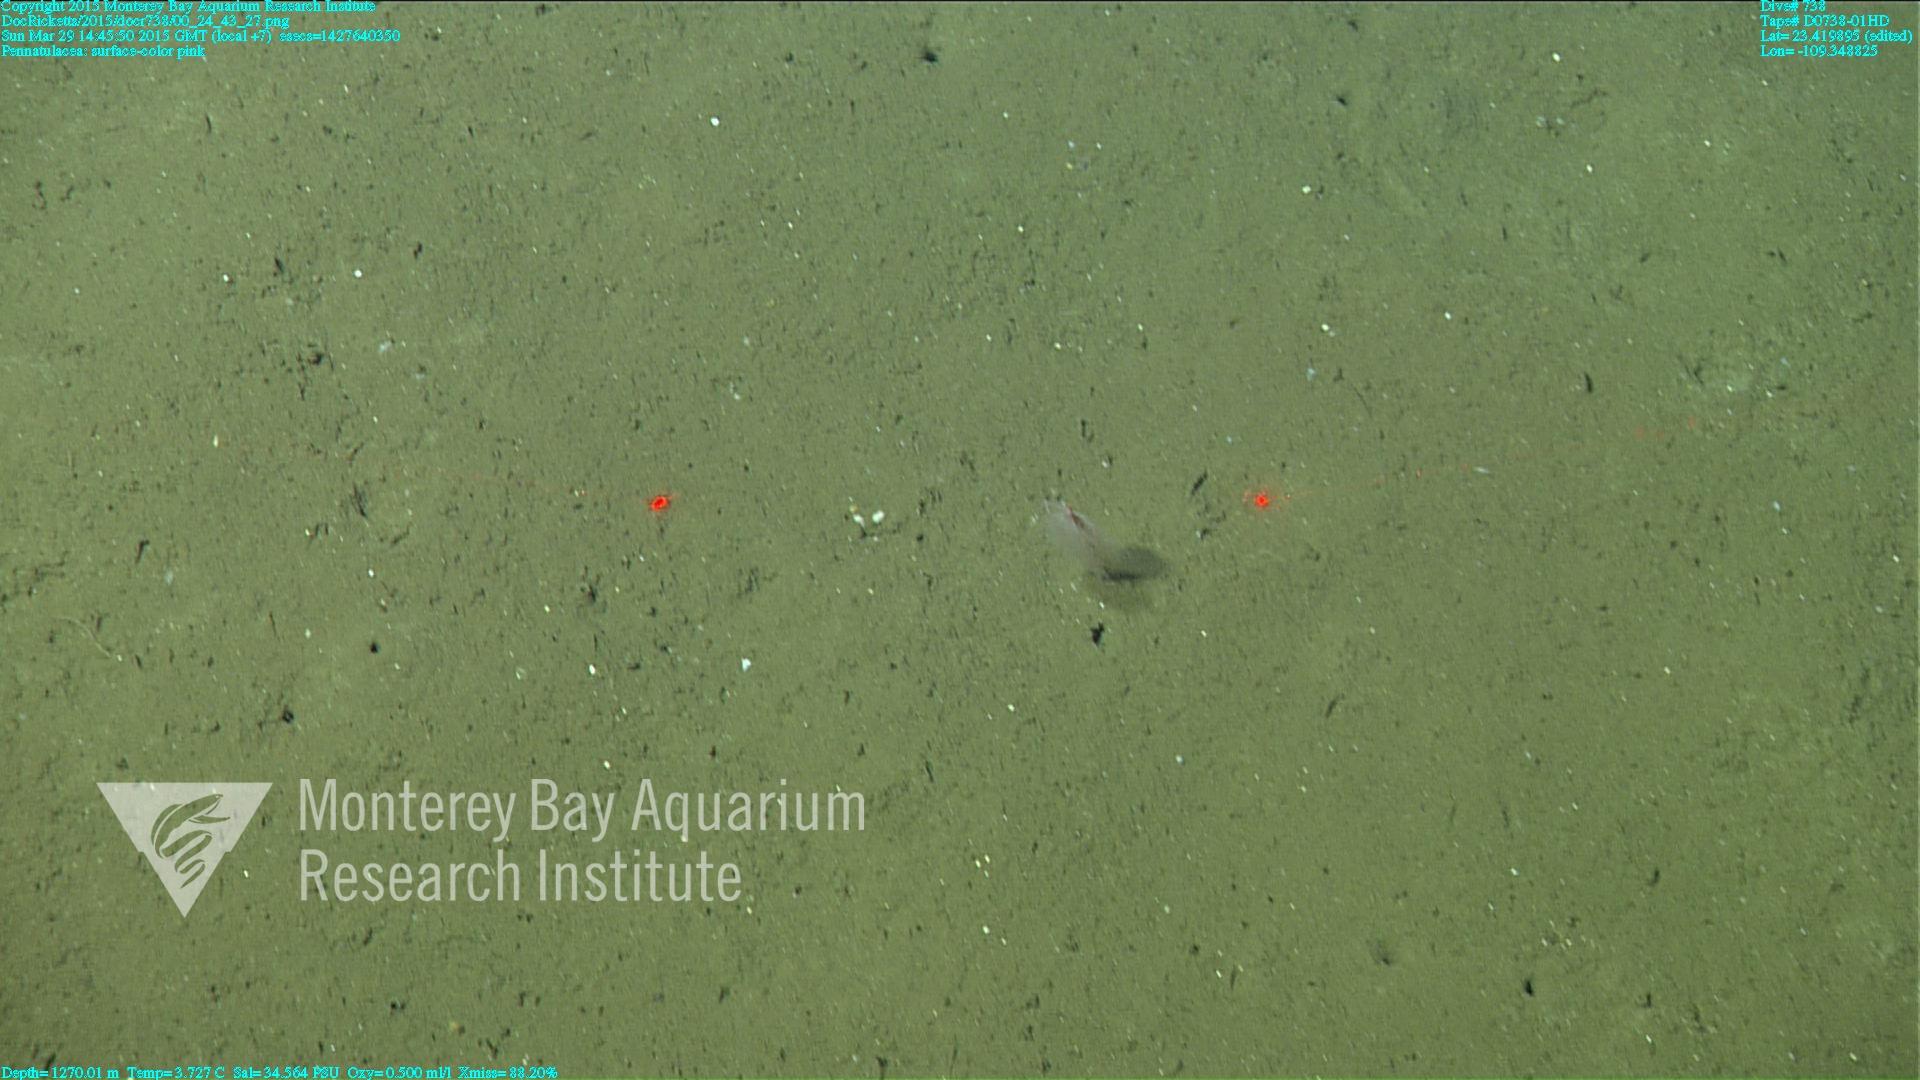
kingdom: Animalia
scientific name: Animalia
